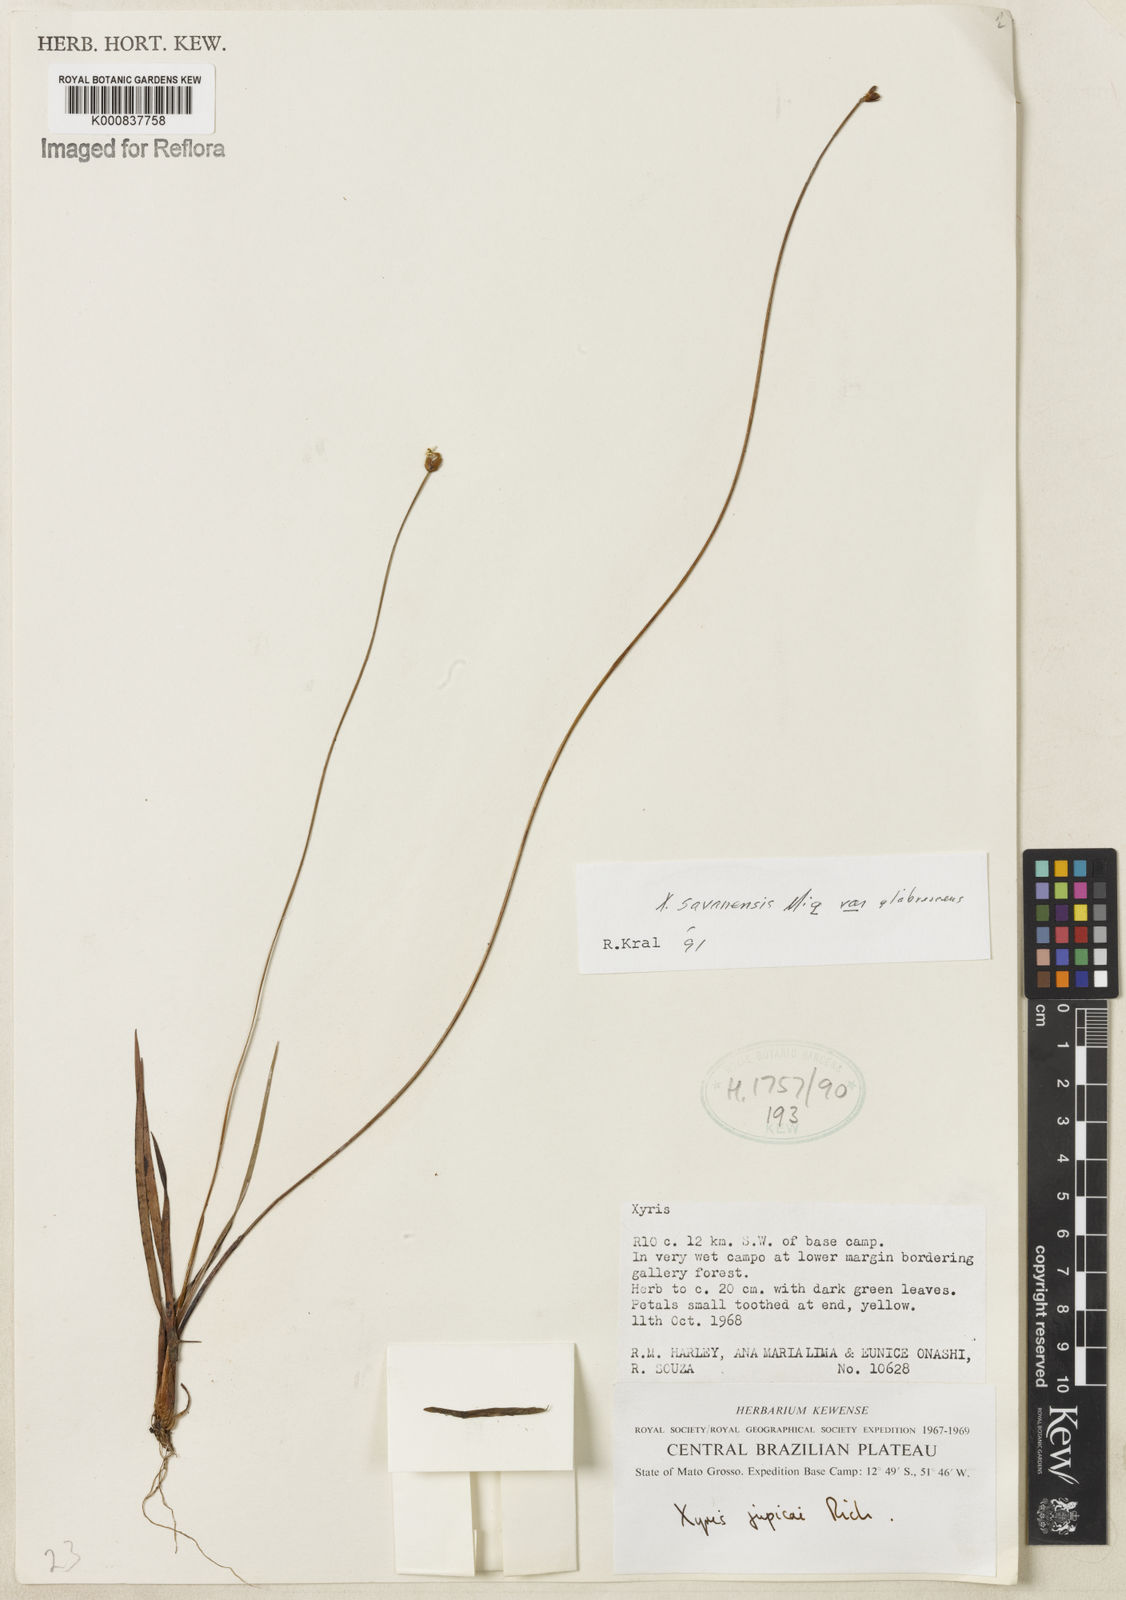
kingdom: Plantae
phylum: Tracheophyta
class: Liliopsida
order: Poales
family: Xyridaceae
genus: Xyris
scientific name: Xyris savanensis
